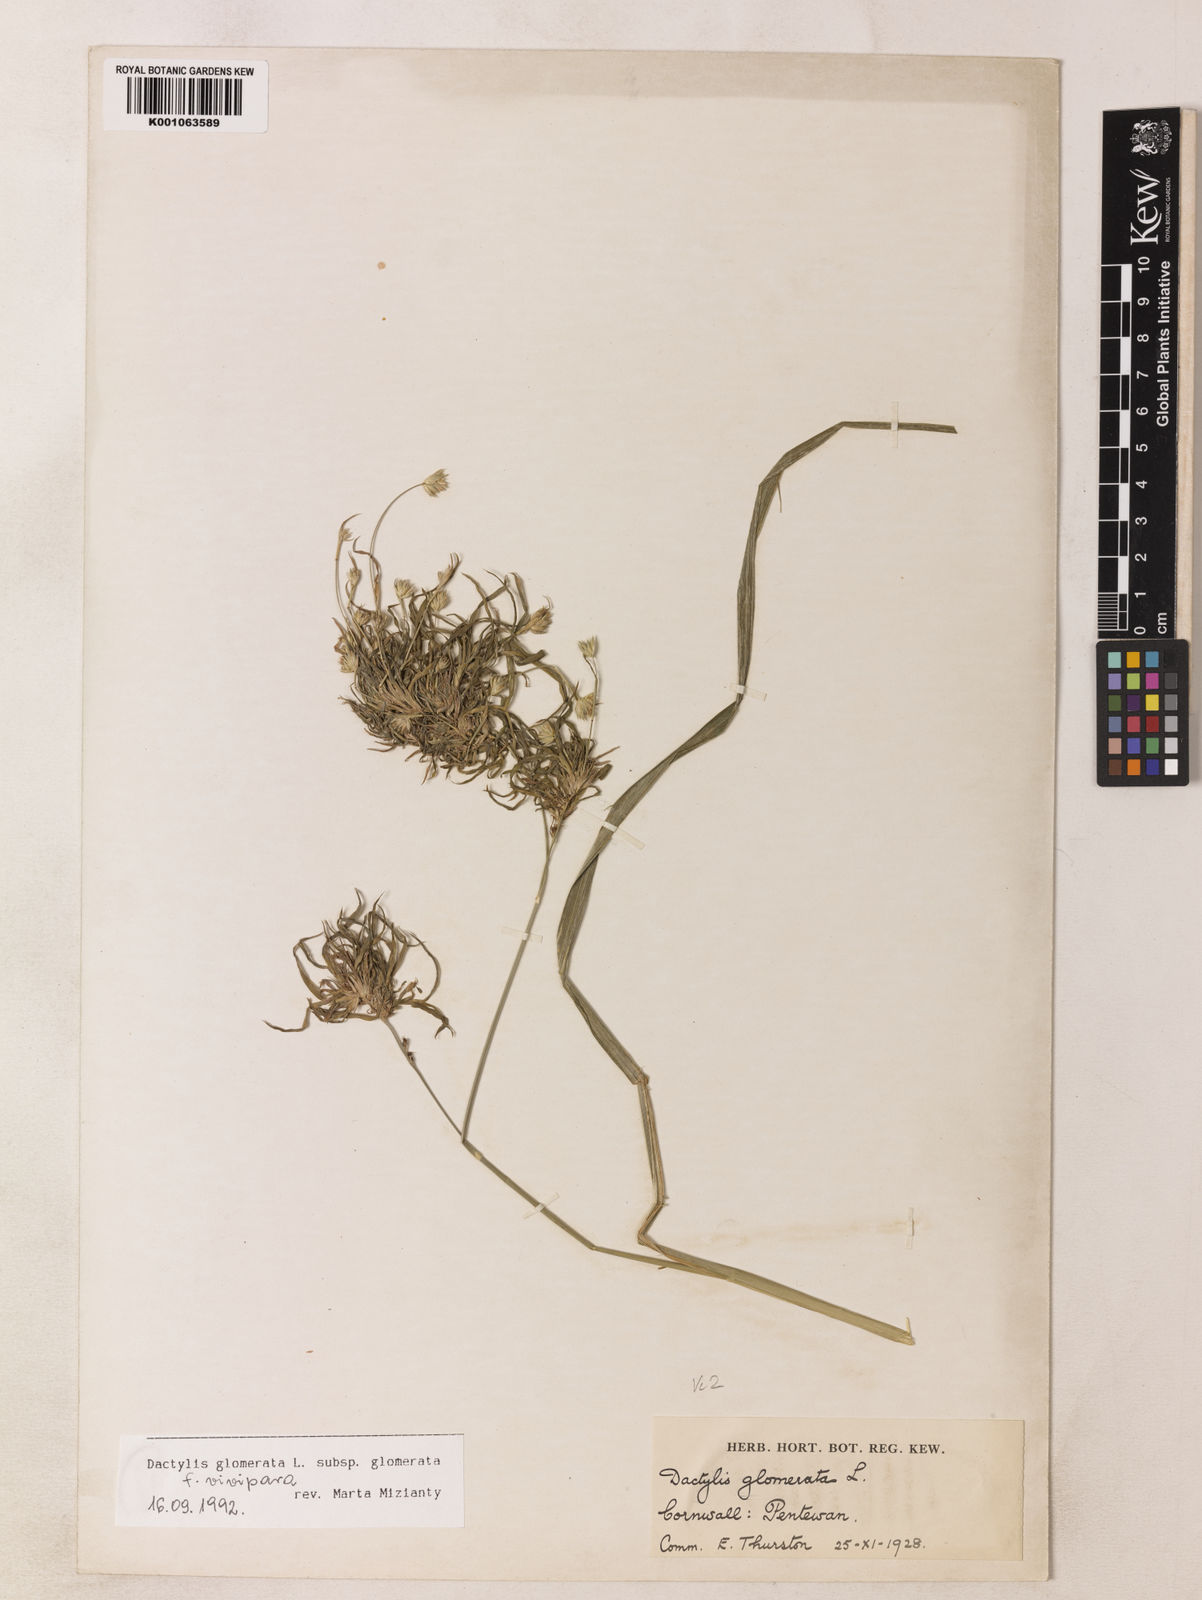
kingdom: Plantae
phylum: Tracheophyta
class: Liliopsida
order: Poales
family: Poaceae
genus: Dactylis
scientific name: Dactylis glomerata
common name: Orchardgrass
